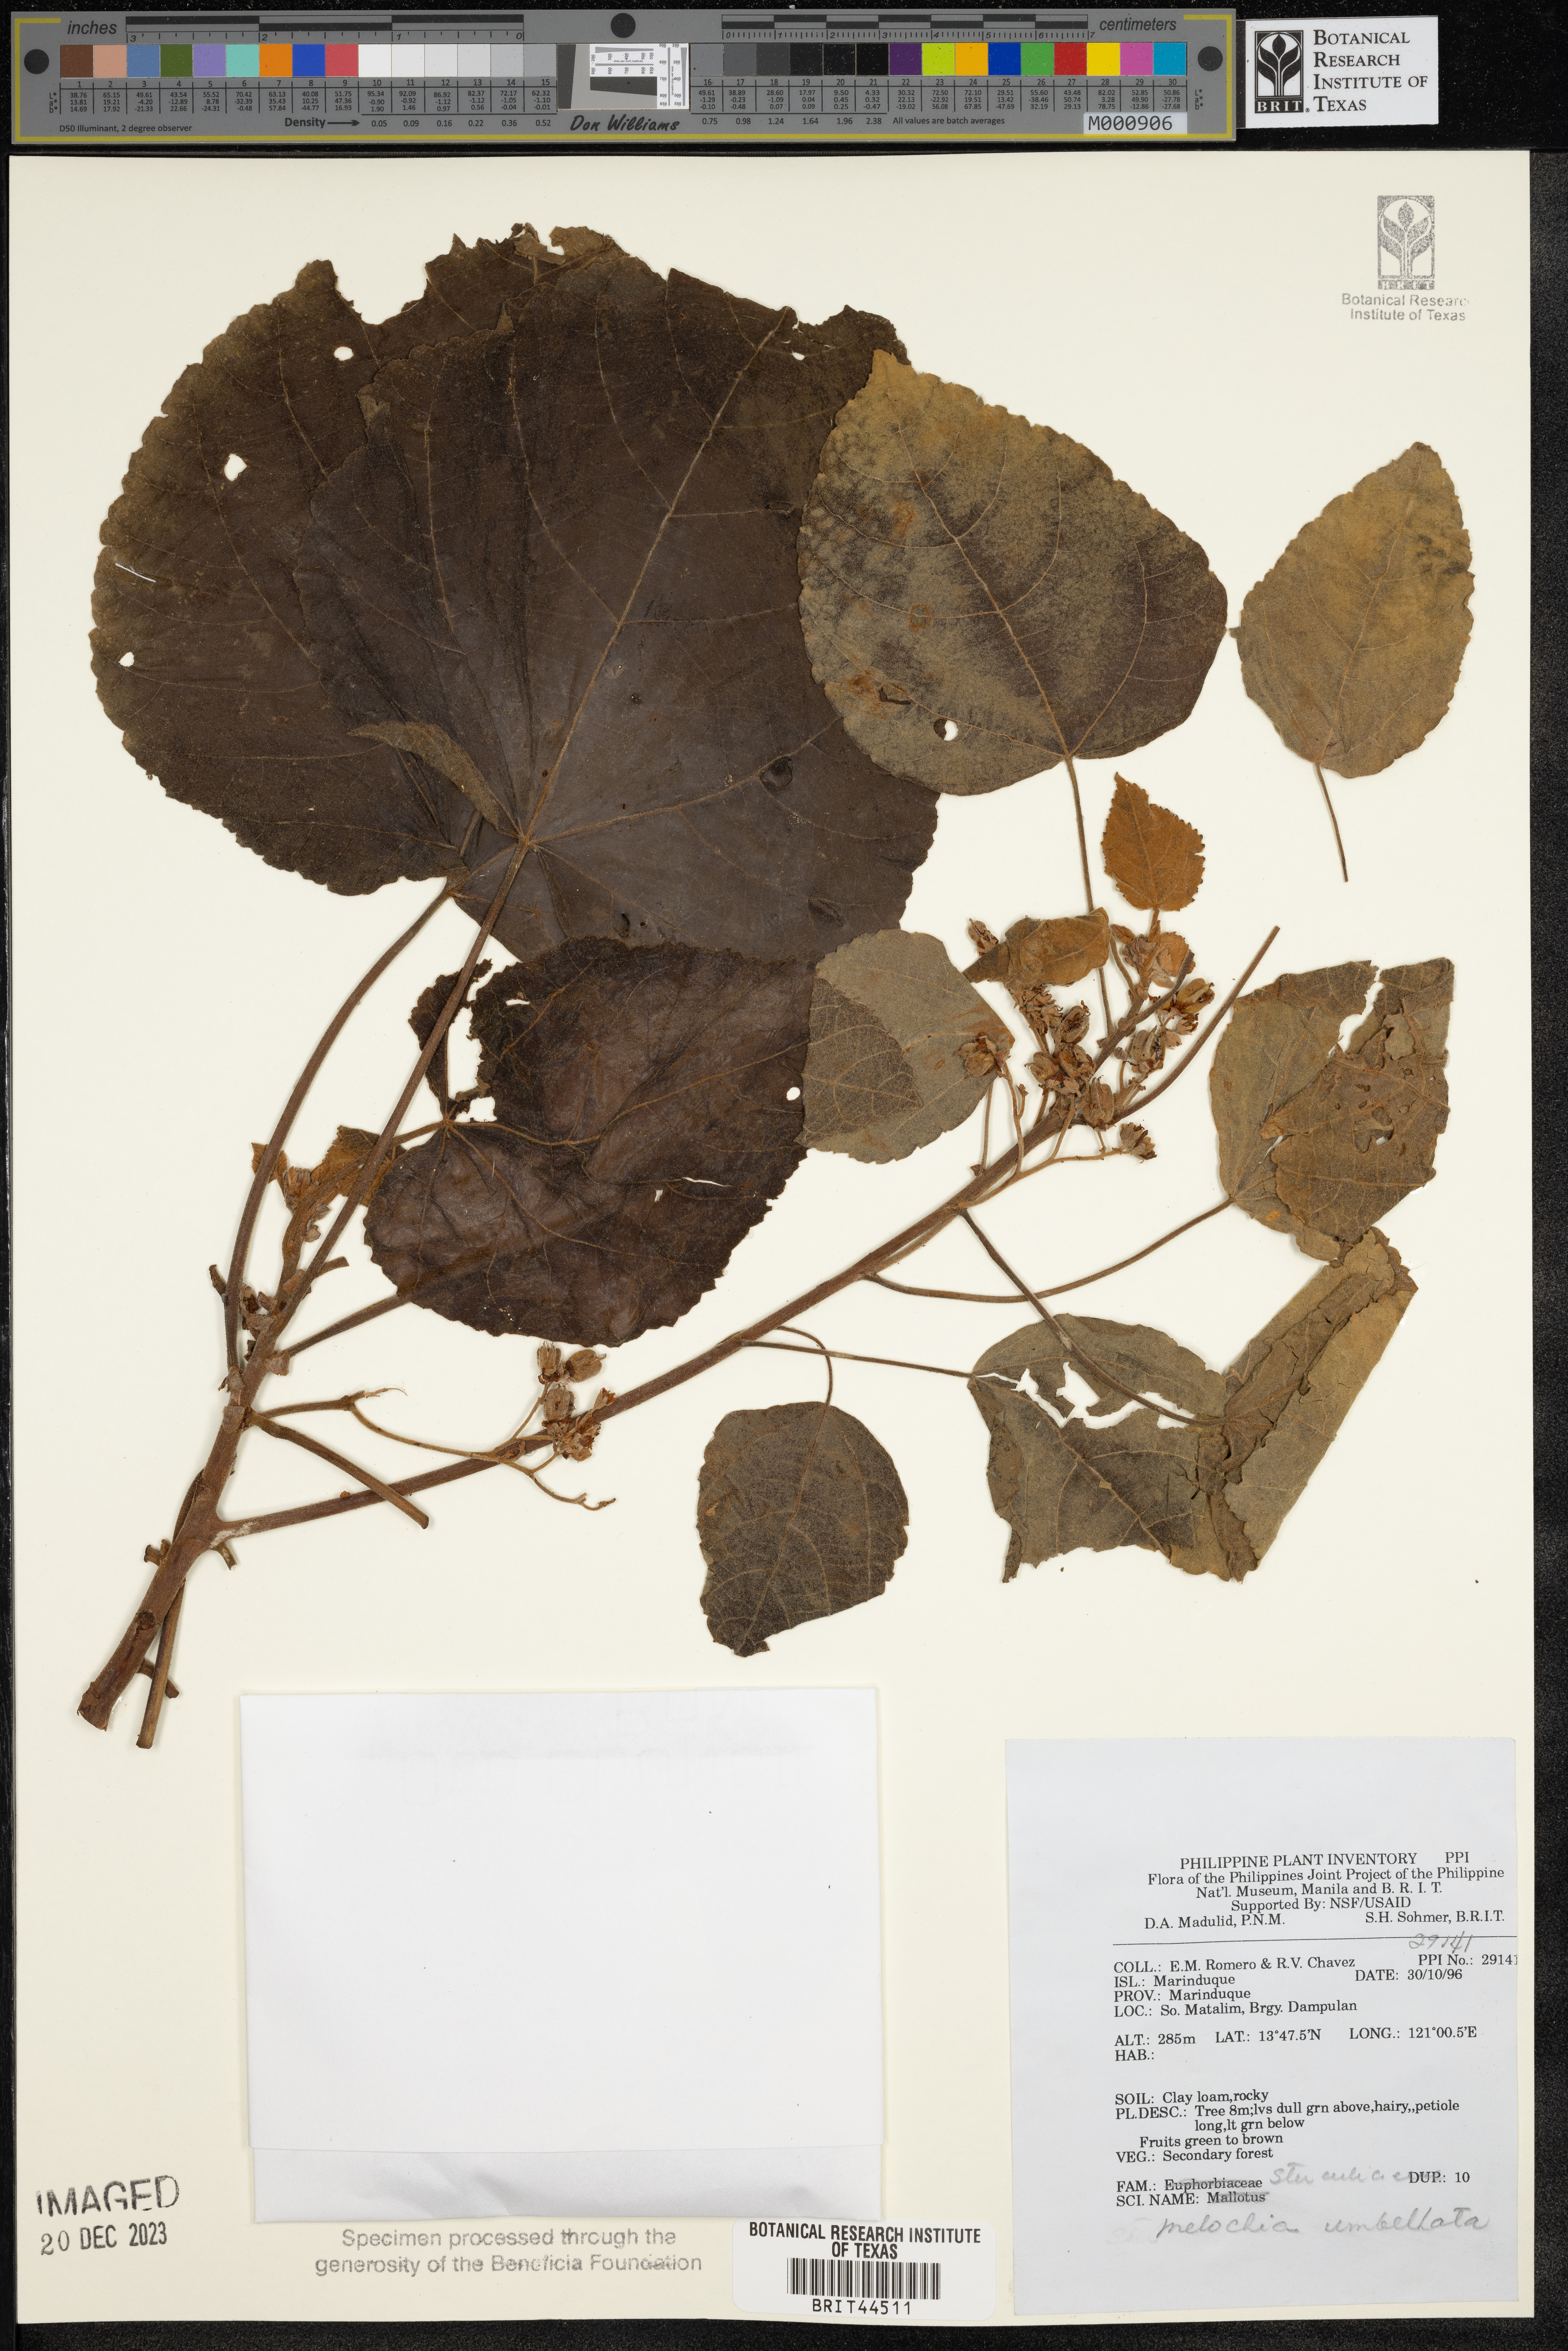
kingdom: Plantae
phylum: Tracheophyta
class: Magnoliopsida
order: Malvales
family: Malvaceae
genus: Melochia
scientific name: Melochia umbellata
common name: Gunpowder tree
